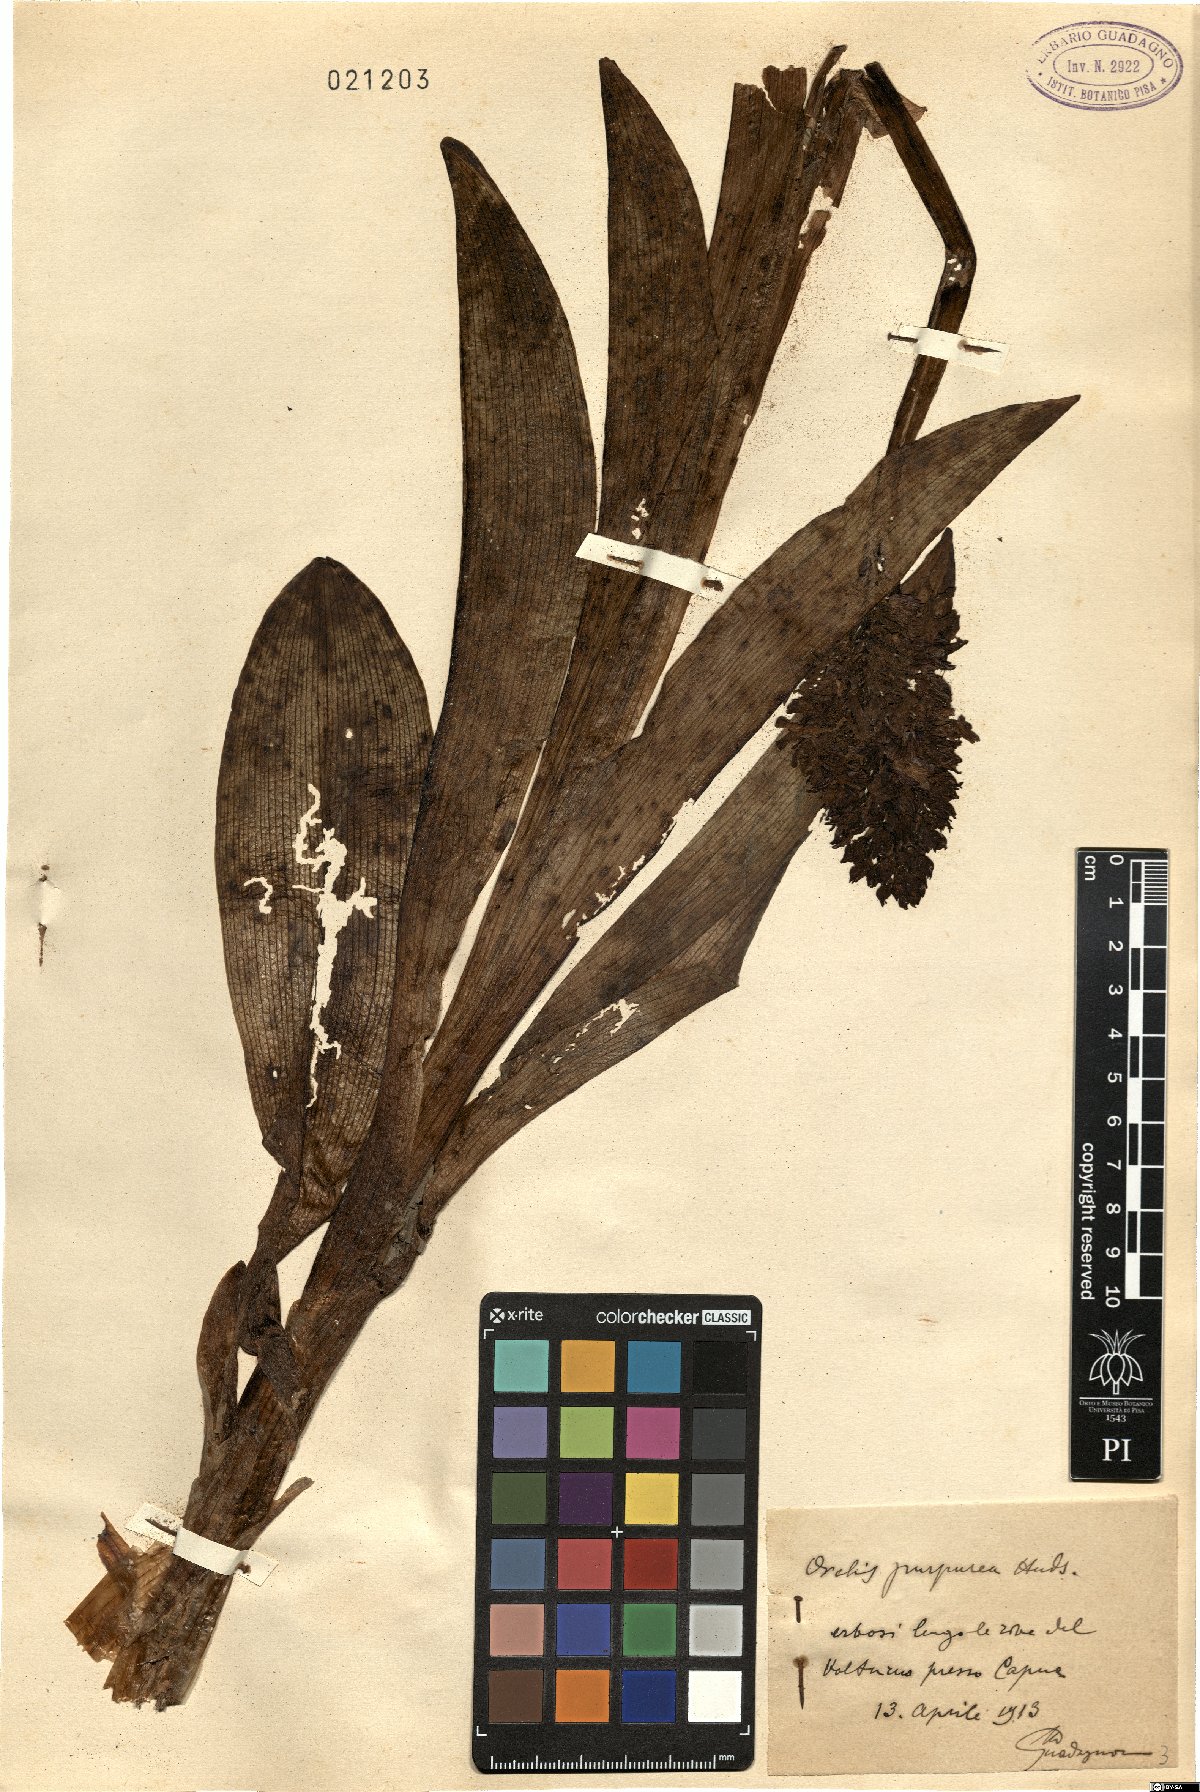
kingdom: Plantae
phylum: Tracheophyta
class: Liliopsida
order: Asparagales
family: Orchidaceae
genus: Orchis
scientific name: Orchis purpurea
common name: Lady orchid
